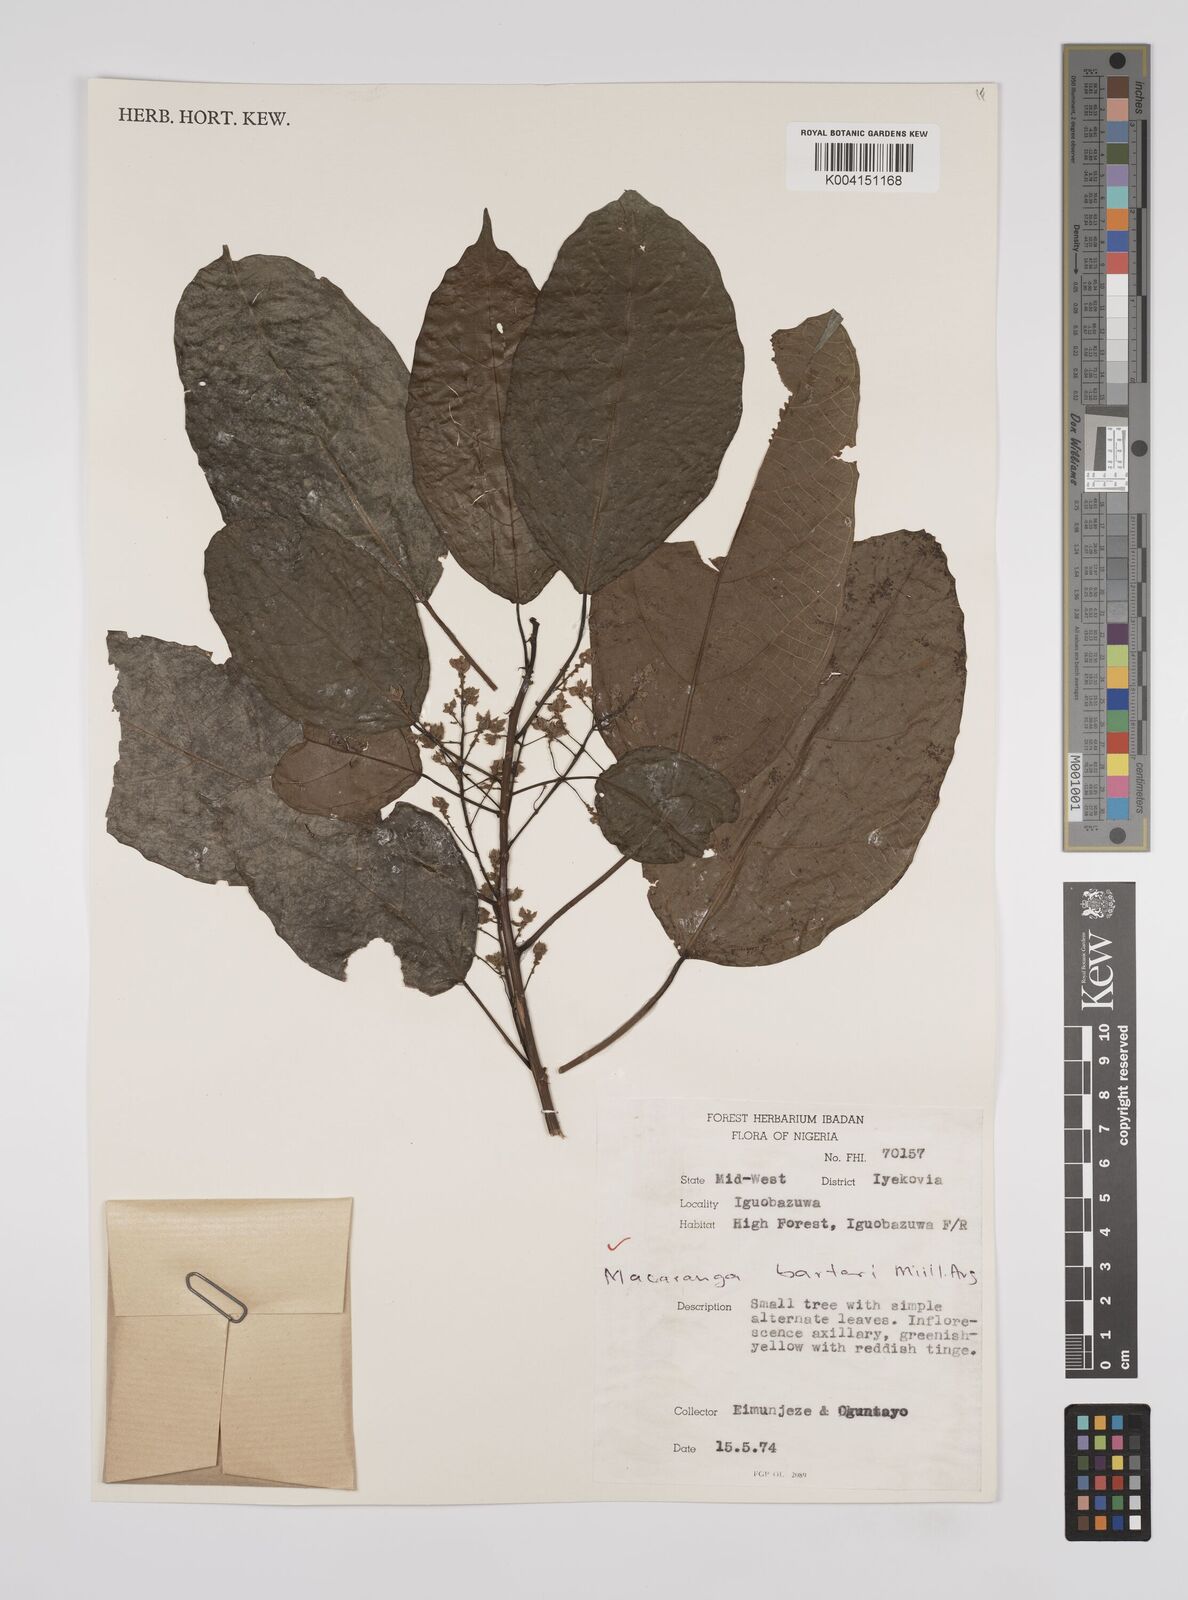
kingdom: Plantae
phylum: Tracheophyta
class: Magnoliopsida
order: Malpighiales
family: Euphorbiaceae
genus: Macaranga
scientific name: Macaranga barteri
